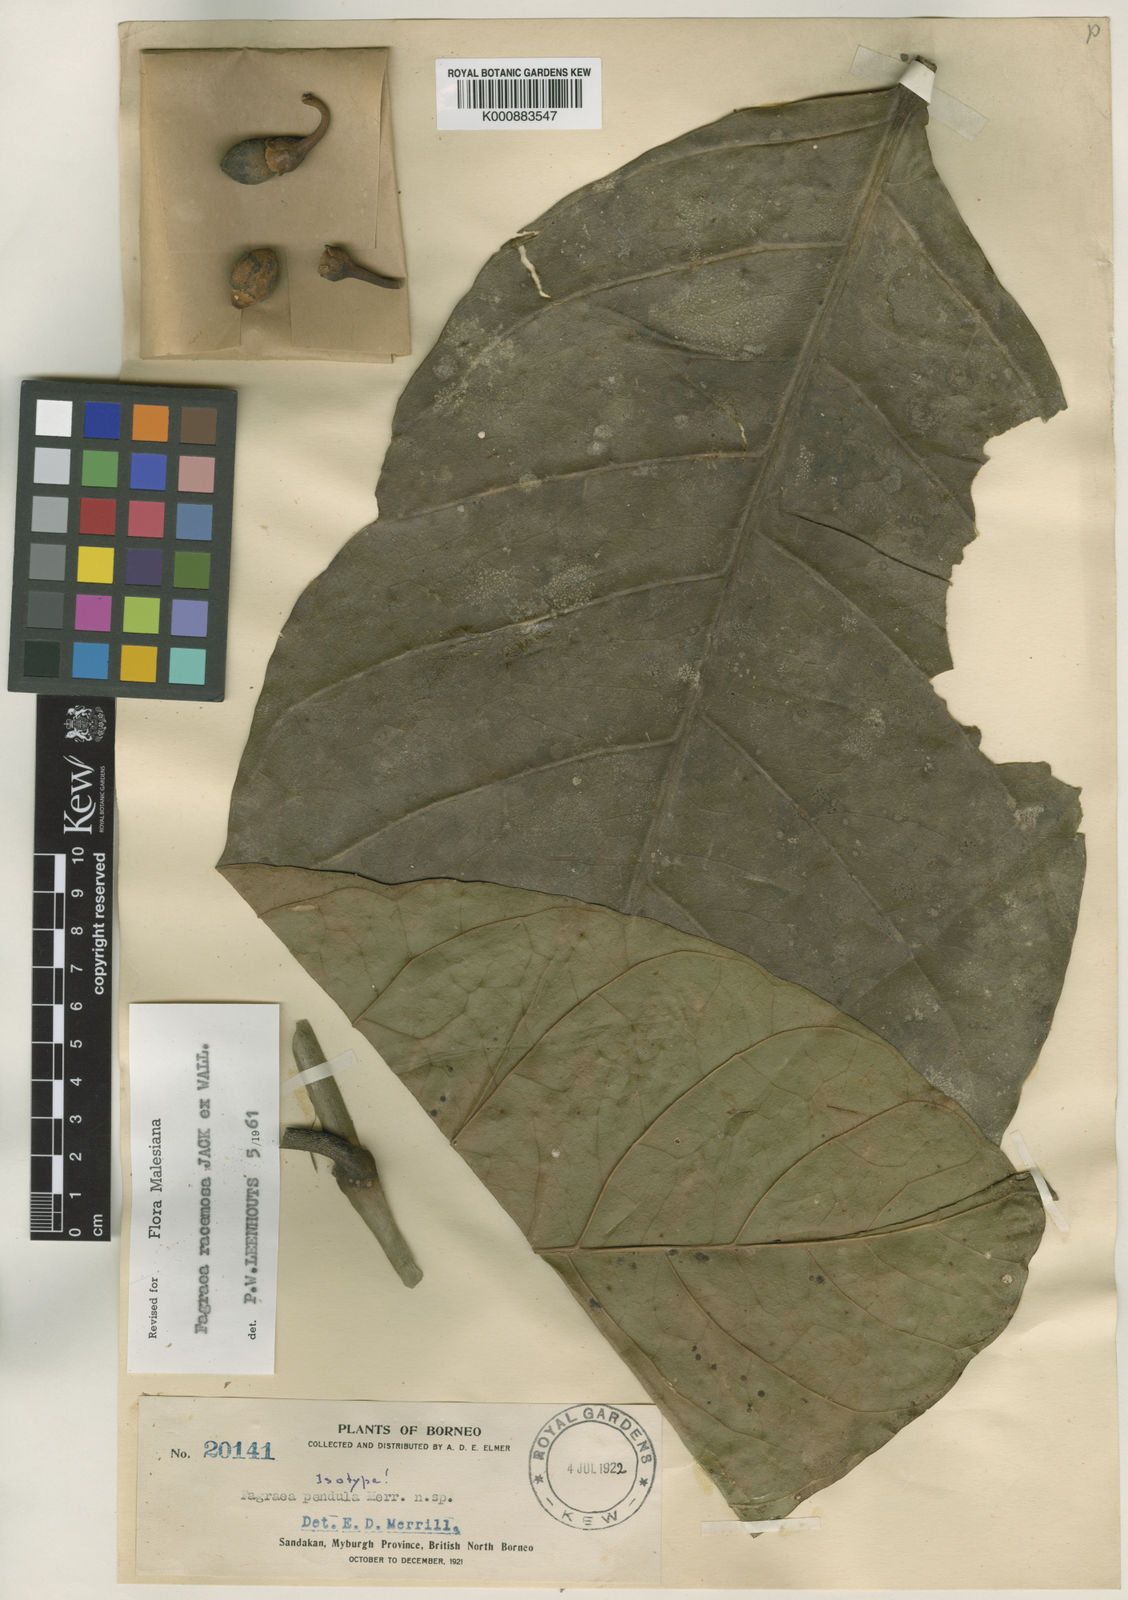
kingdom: Plantae
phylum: Tracheophyta
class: Magnoliopsida
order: Gentianales
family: Gentianaceae
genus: Utania
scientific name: Utania cuspidata
